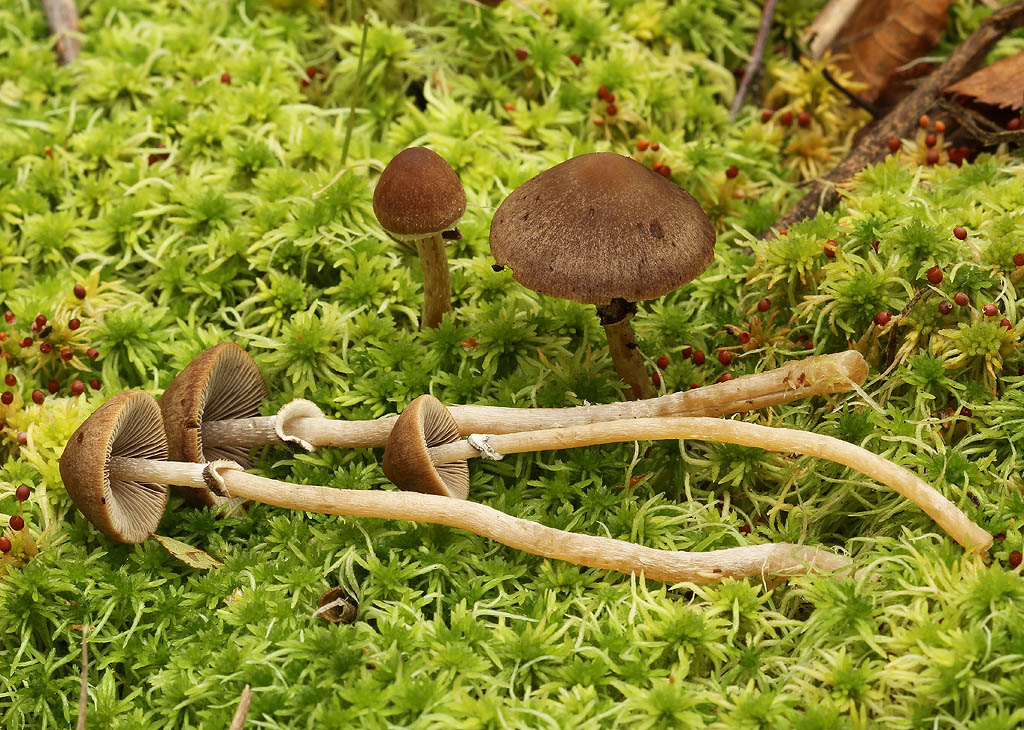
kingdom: Fungi
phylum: Basidiomycota
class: Agaricomycetes
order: Agaricales
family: Psathyrellaceae
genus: Psathyrella
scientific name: Psathyrella sphagnicola
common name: tørve-mørkhat
